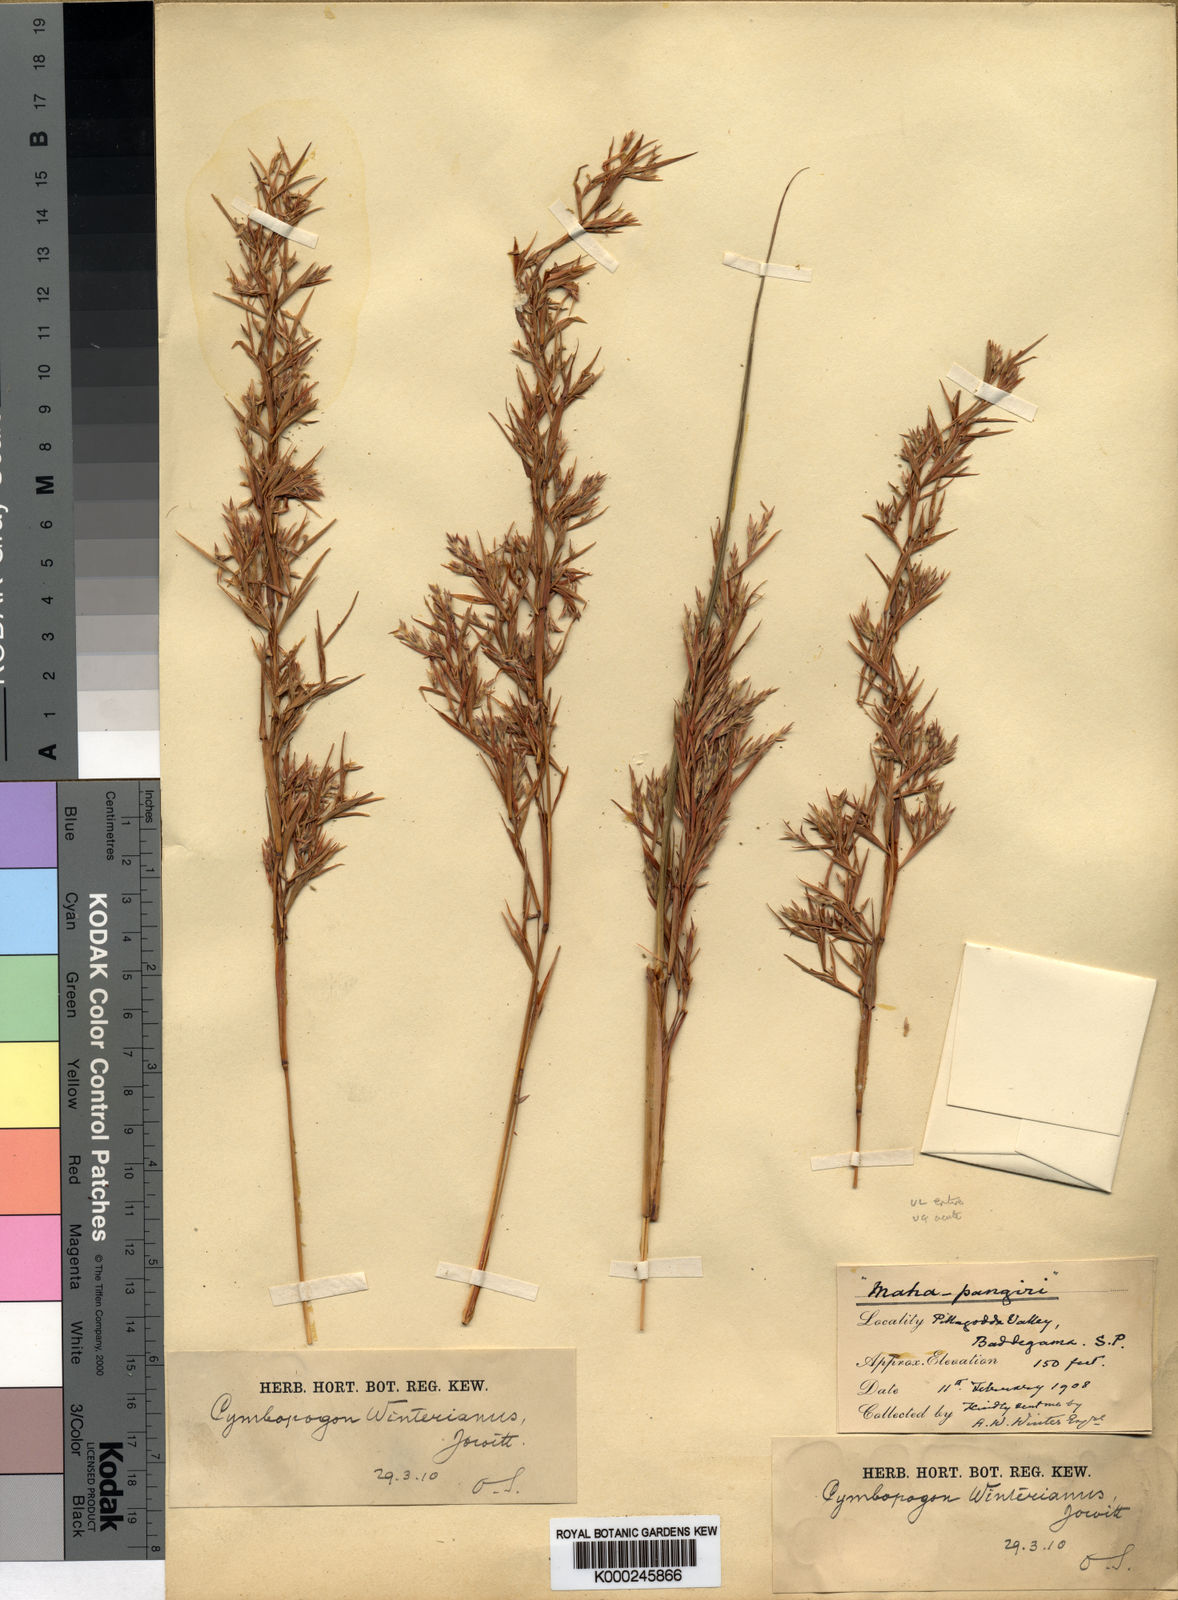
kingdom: Plantae
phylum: Tracheophyta
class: Liliopsida
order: Poales
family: Poaceae
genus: Cymbopogon
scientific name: Cymbopogon
